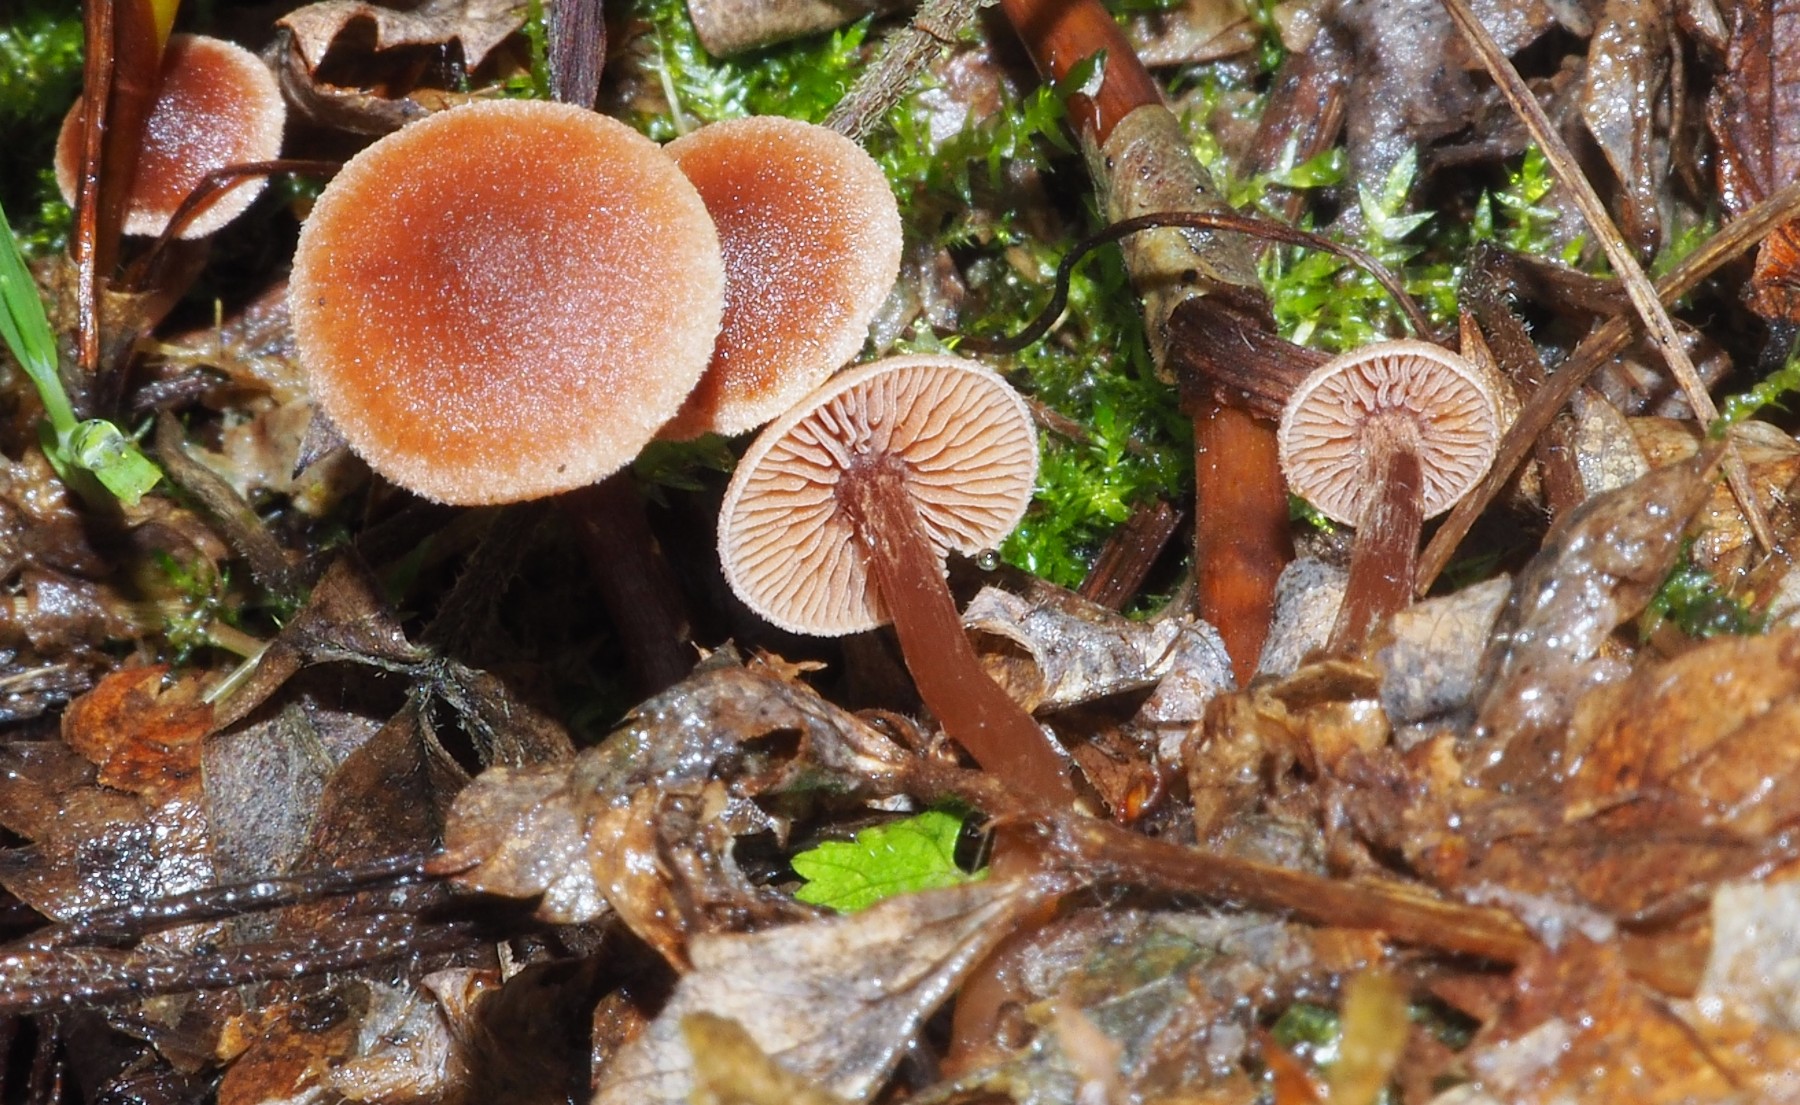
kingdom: Fungi
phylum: Basidiomycota
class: Agaricomycetes
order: Agaricales
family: Hymenogastraceae
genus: Naucoria
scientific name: Naucoria scolecina
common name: mørk elle-knaphat
